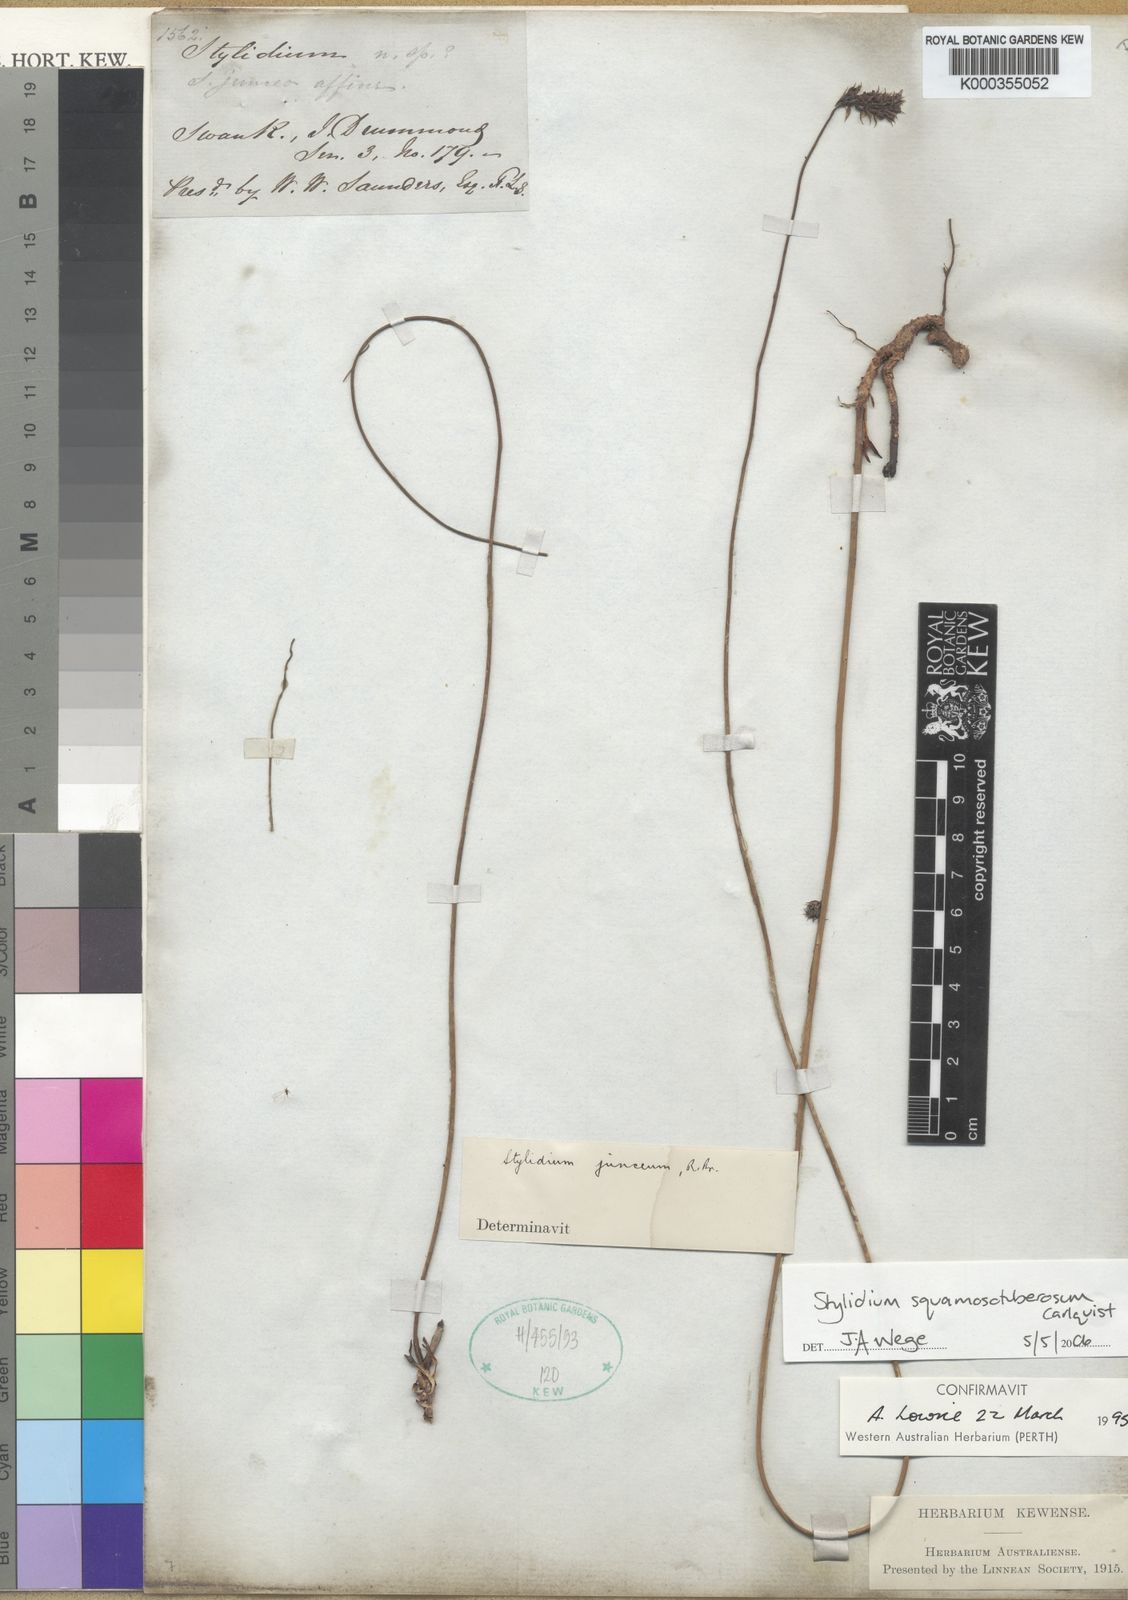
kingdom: Plantae
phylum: Tracheophyta
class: Magnoliopsida
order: Asterales
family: Stylidiaceae
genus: Stylidium
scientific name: Stylidium
